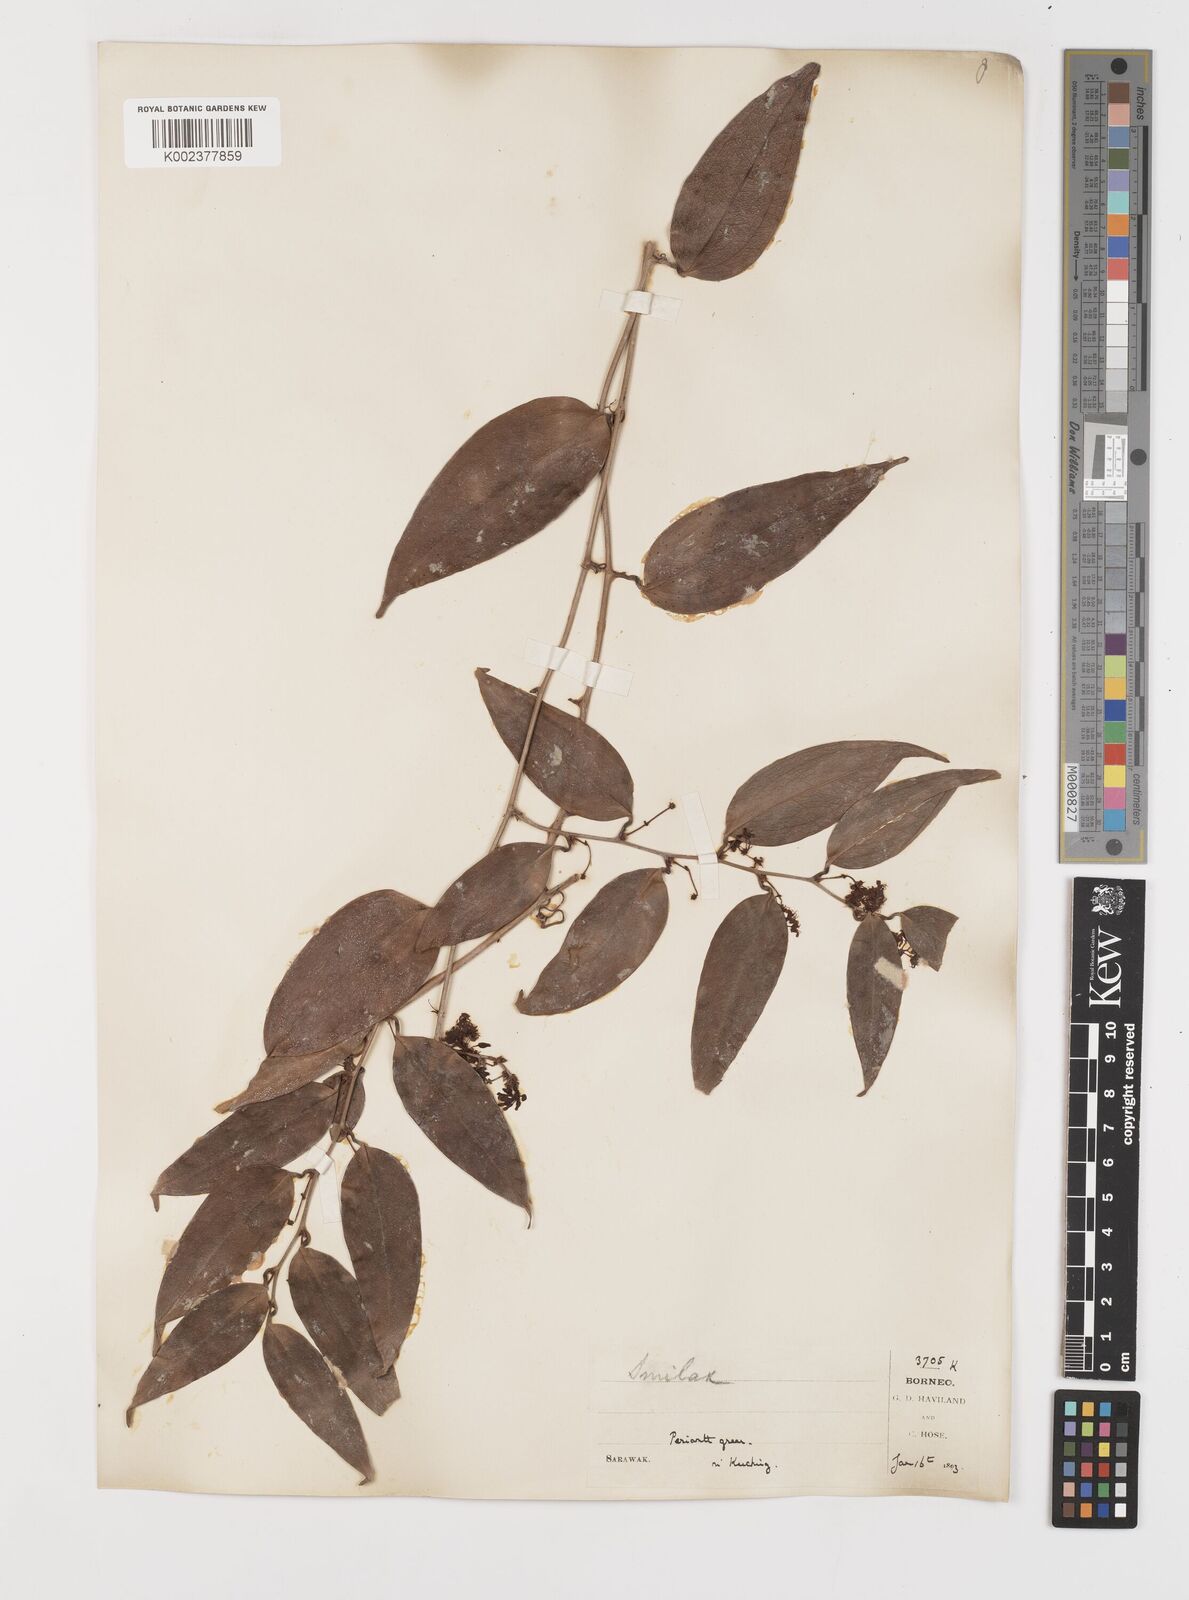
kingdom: Plantae
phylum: Tracheophyta
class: Liliopsida
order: Liliales
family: Smilacaceae
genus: Smilax
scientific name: Smilax
